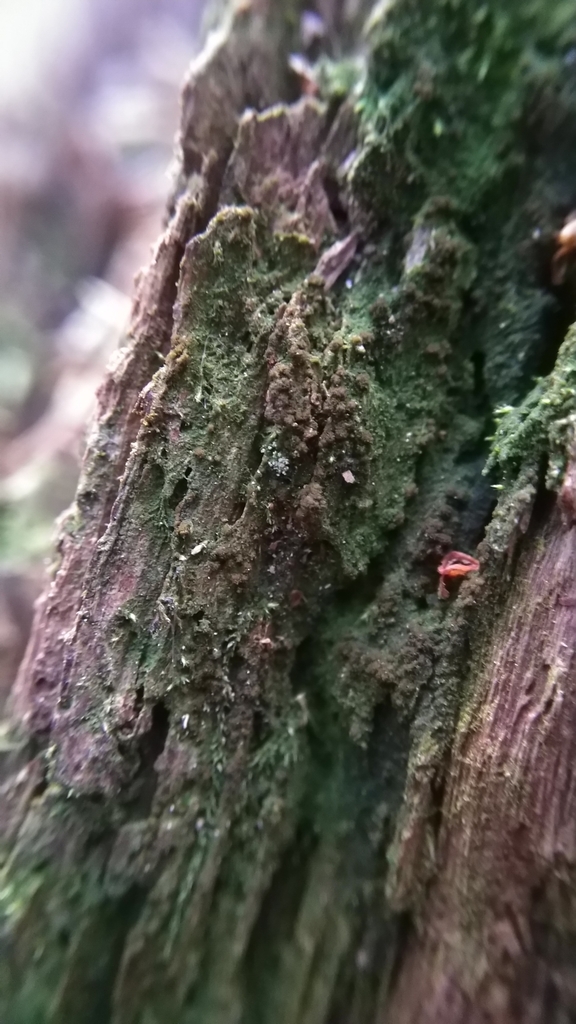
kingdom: Plantae
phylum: Bryophyta
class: Bryopsida
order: Buxbaumiales
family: Buxbaumiaceae
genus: Buxbaumia
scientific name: Buxbaumia viridis
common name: Green shield-moss
